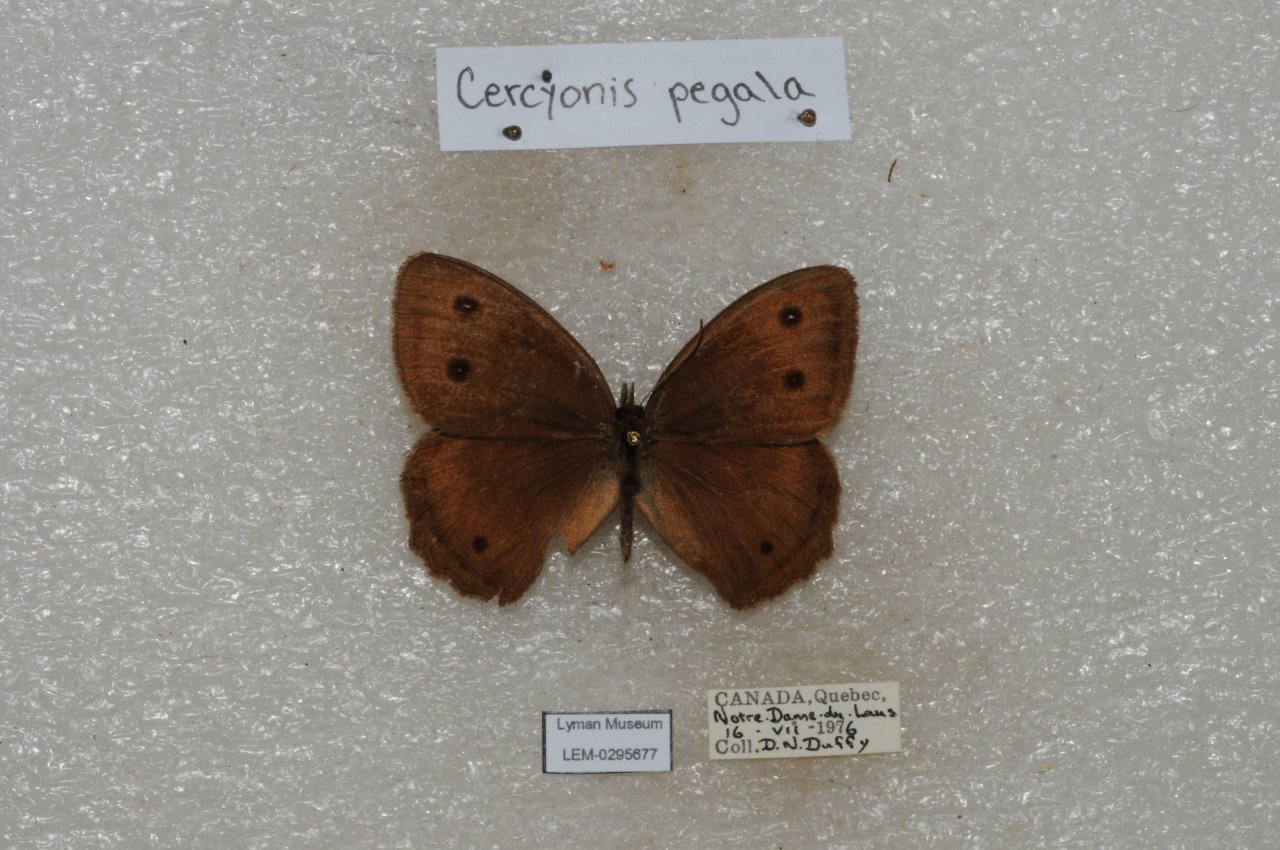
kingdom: Animalia
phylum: Arthropoda
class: Insecta
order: Lepidoptera
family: Nymphalidae
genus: Cercyonis
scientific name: Cercyonis pegala
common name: Common Wood-Nymph
